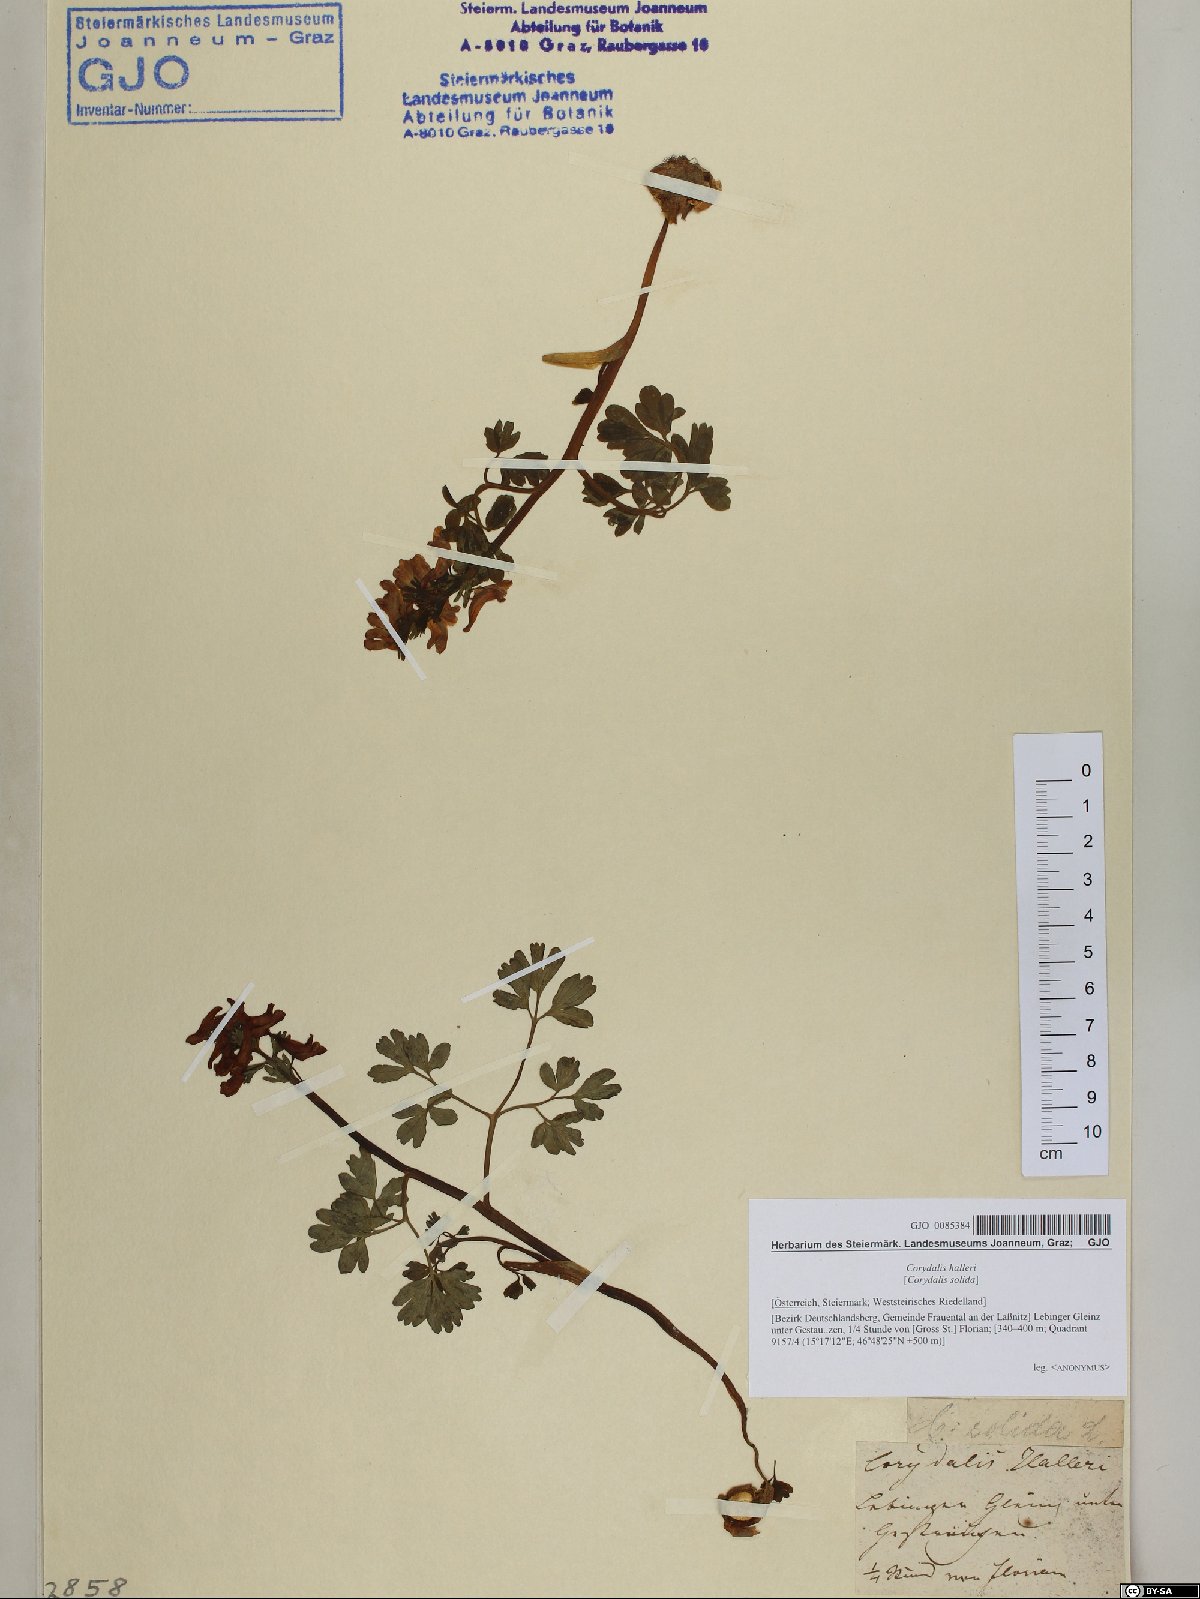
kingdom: Plantae
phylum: Tracheophyta
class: Magnoliopsida
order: Ranunculales
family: Papaveraceae
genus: Corydalis
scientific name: Corydalis solida
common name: Bird-in-a-bush
